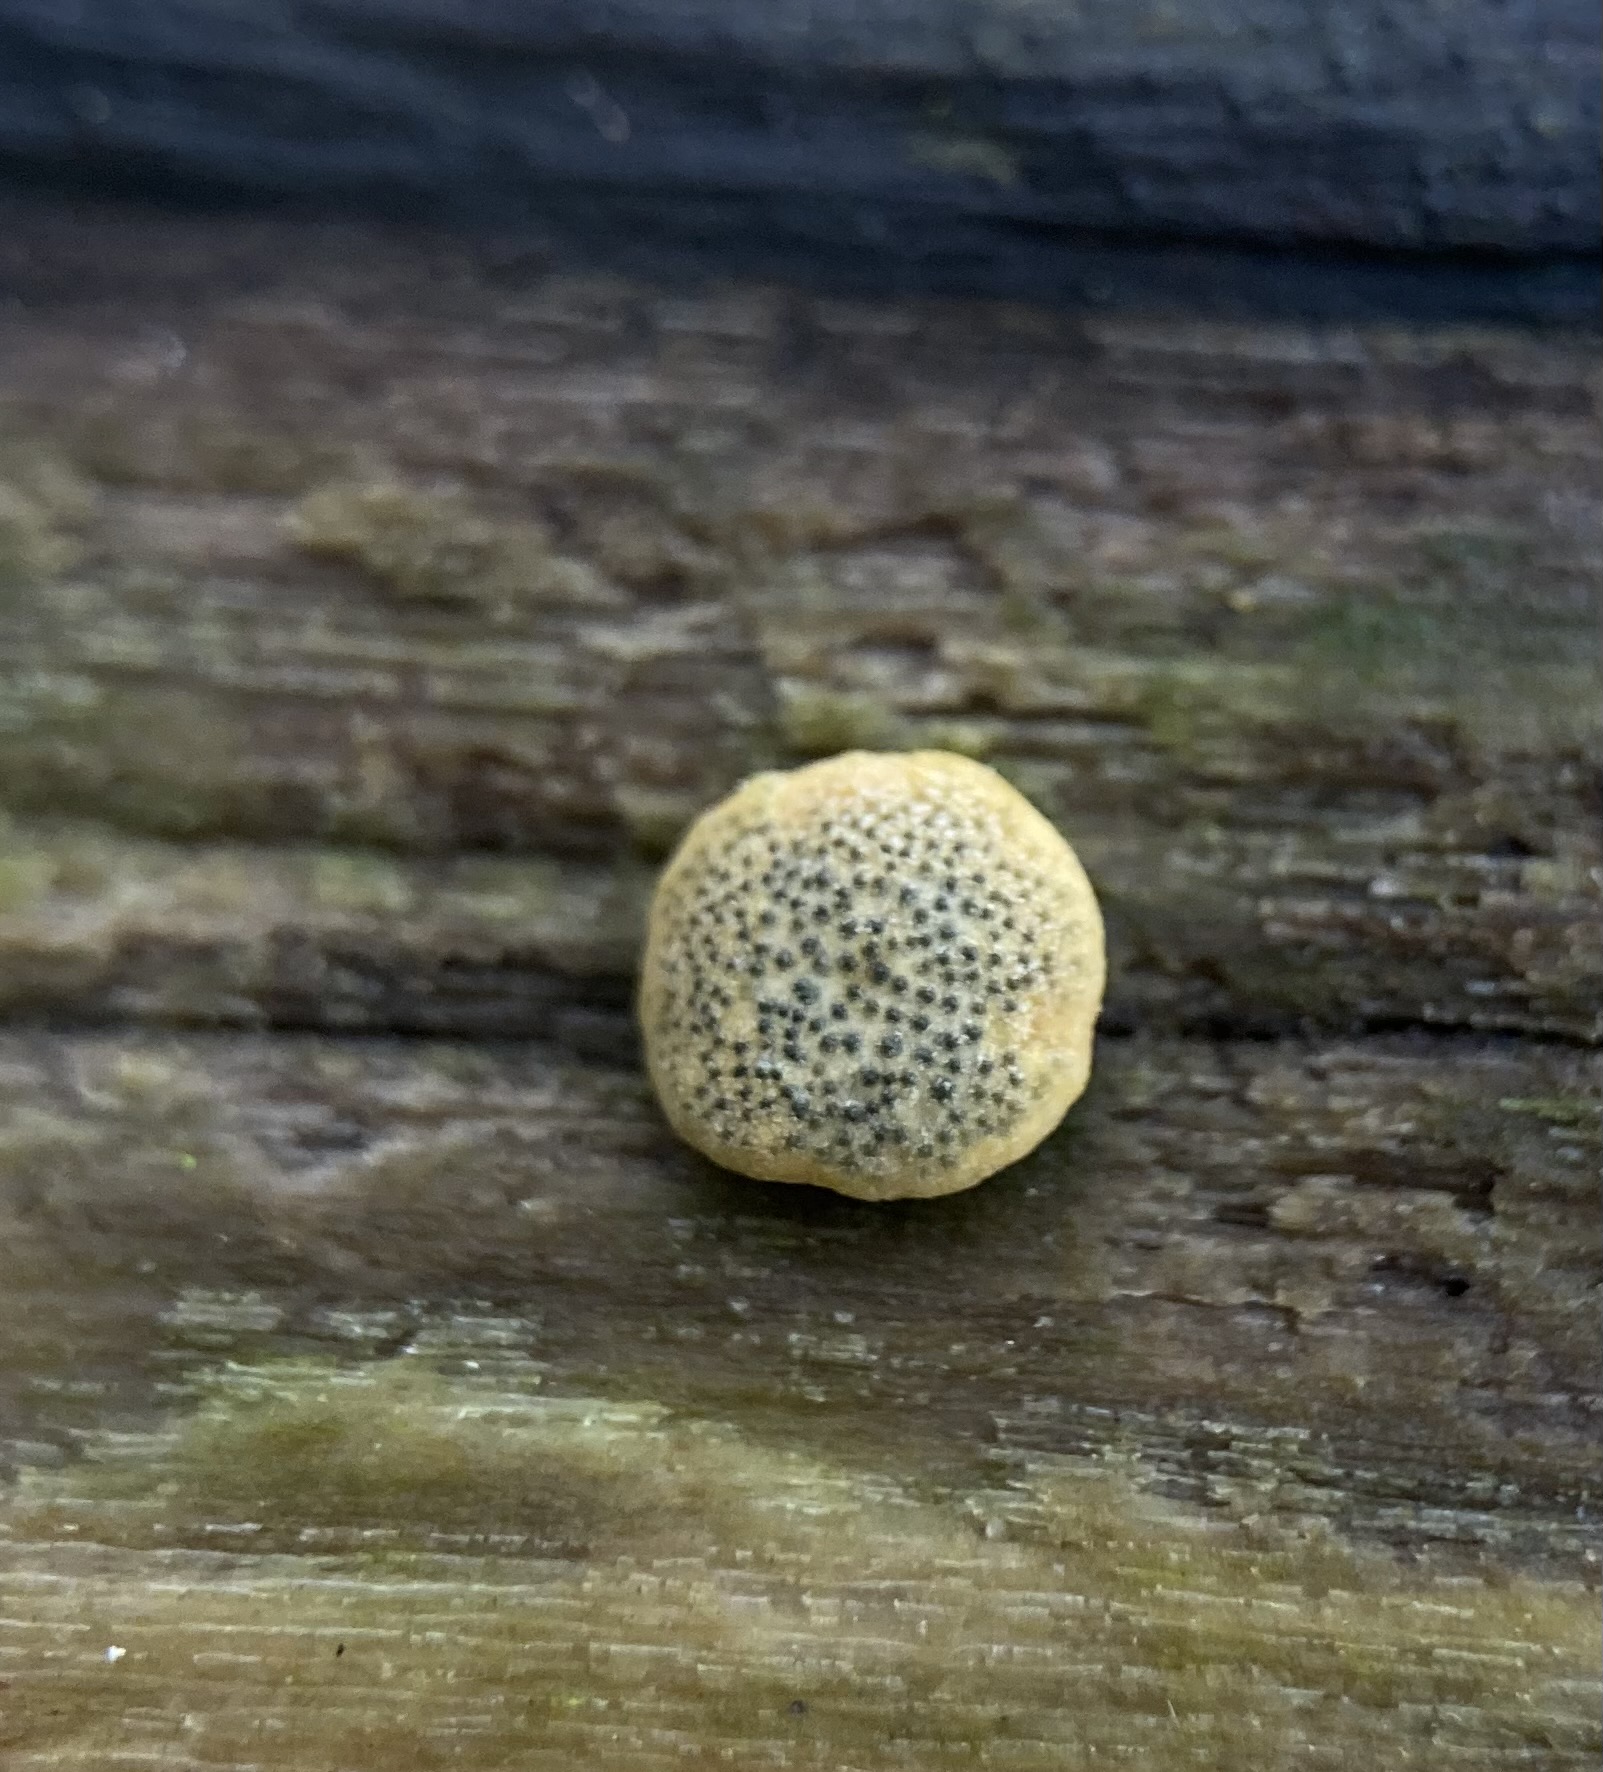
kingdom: Fungi
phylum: Ascomycota
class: Sordariomycetes
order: Hypocreales
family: Hypocreaceae
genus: Trichoderma
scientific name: Trichoderma aureoviride
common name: æggegul kødkerne
